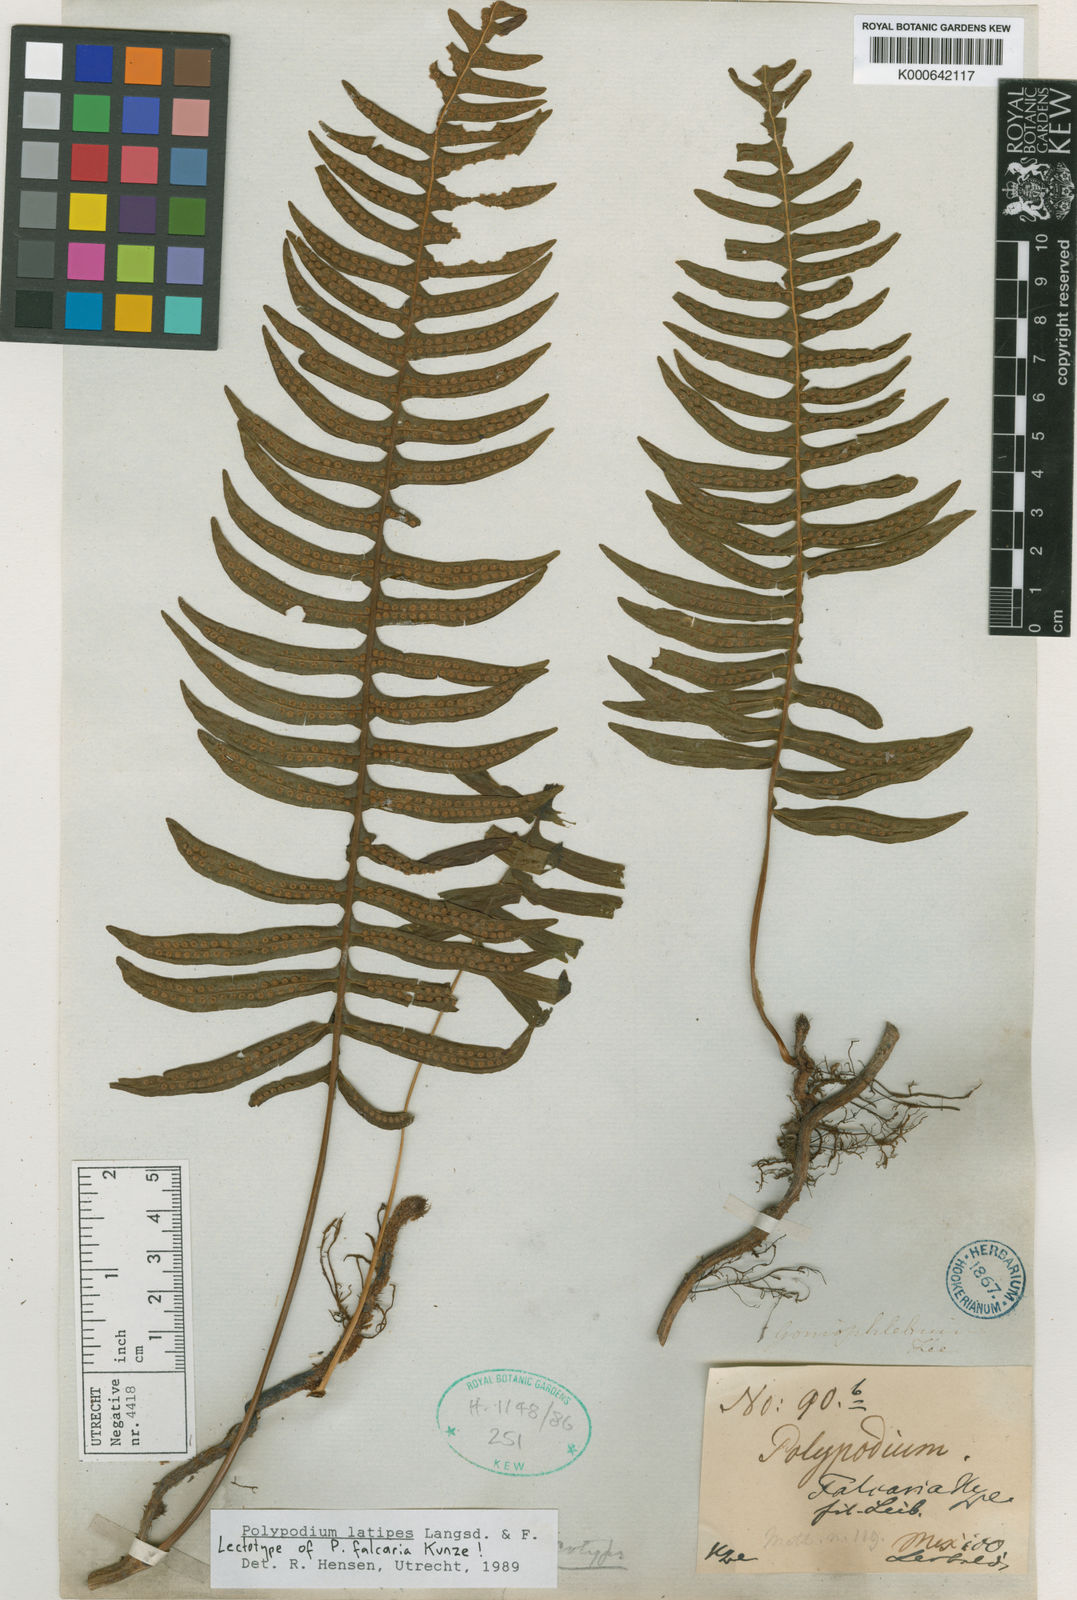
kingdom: Plantae
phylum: Tracheophyta
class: Polypodiopsida
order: Polypodiales
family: Polypodiaceae
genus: Serpocaulon
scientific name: Serpocaulon latipes
